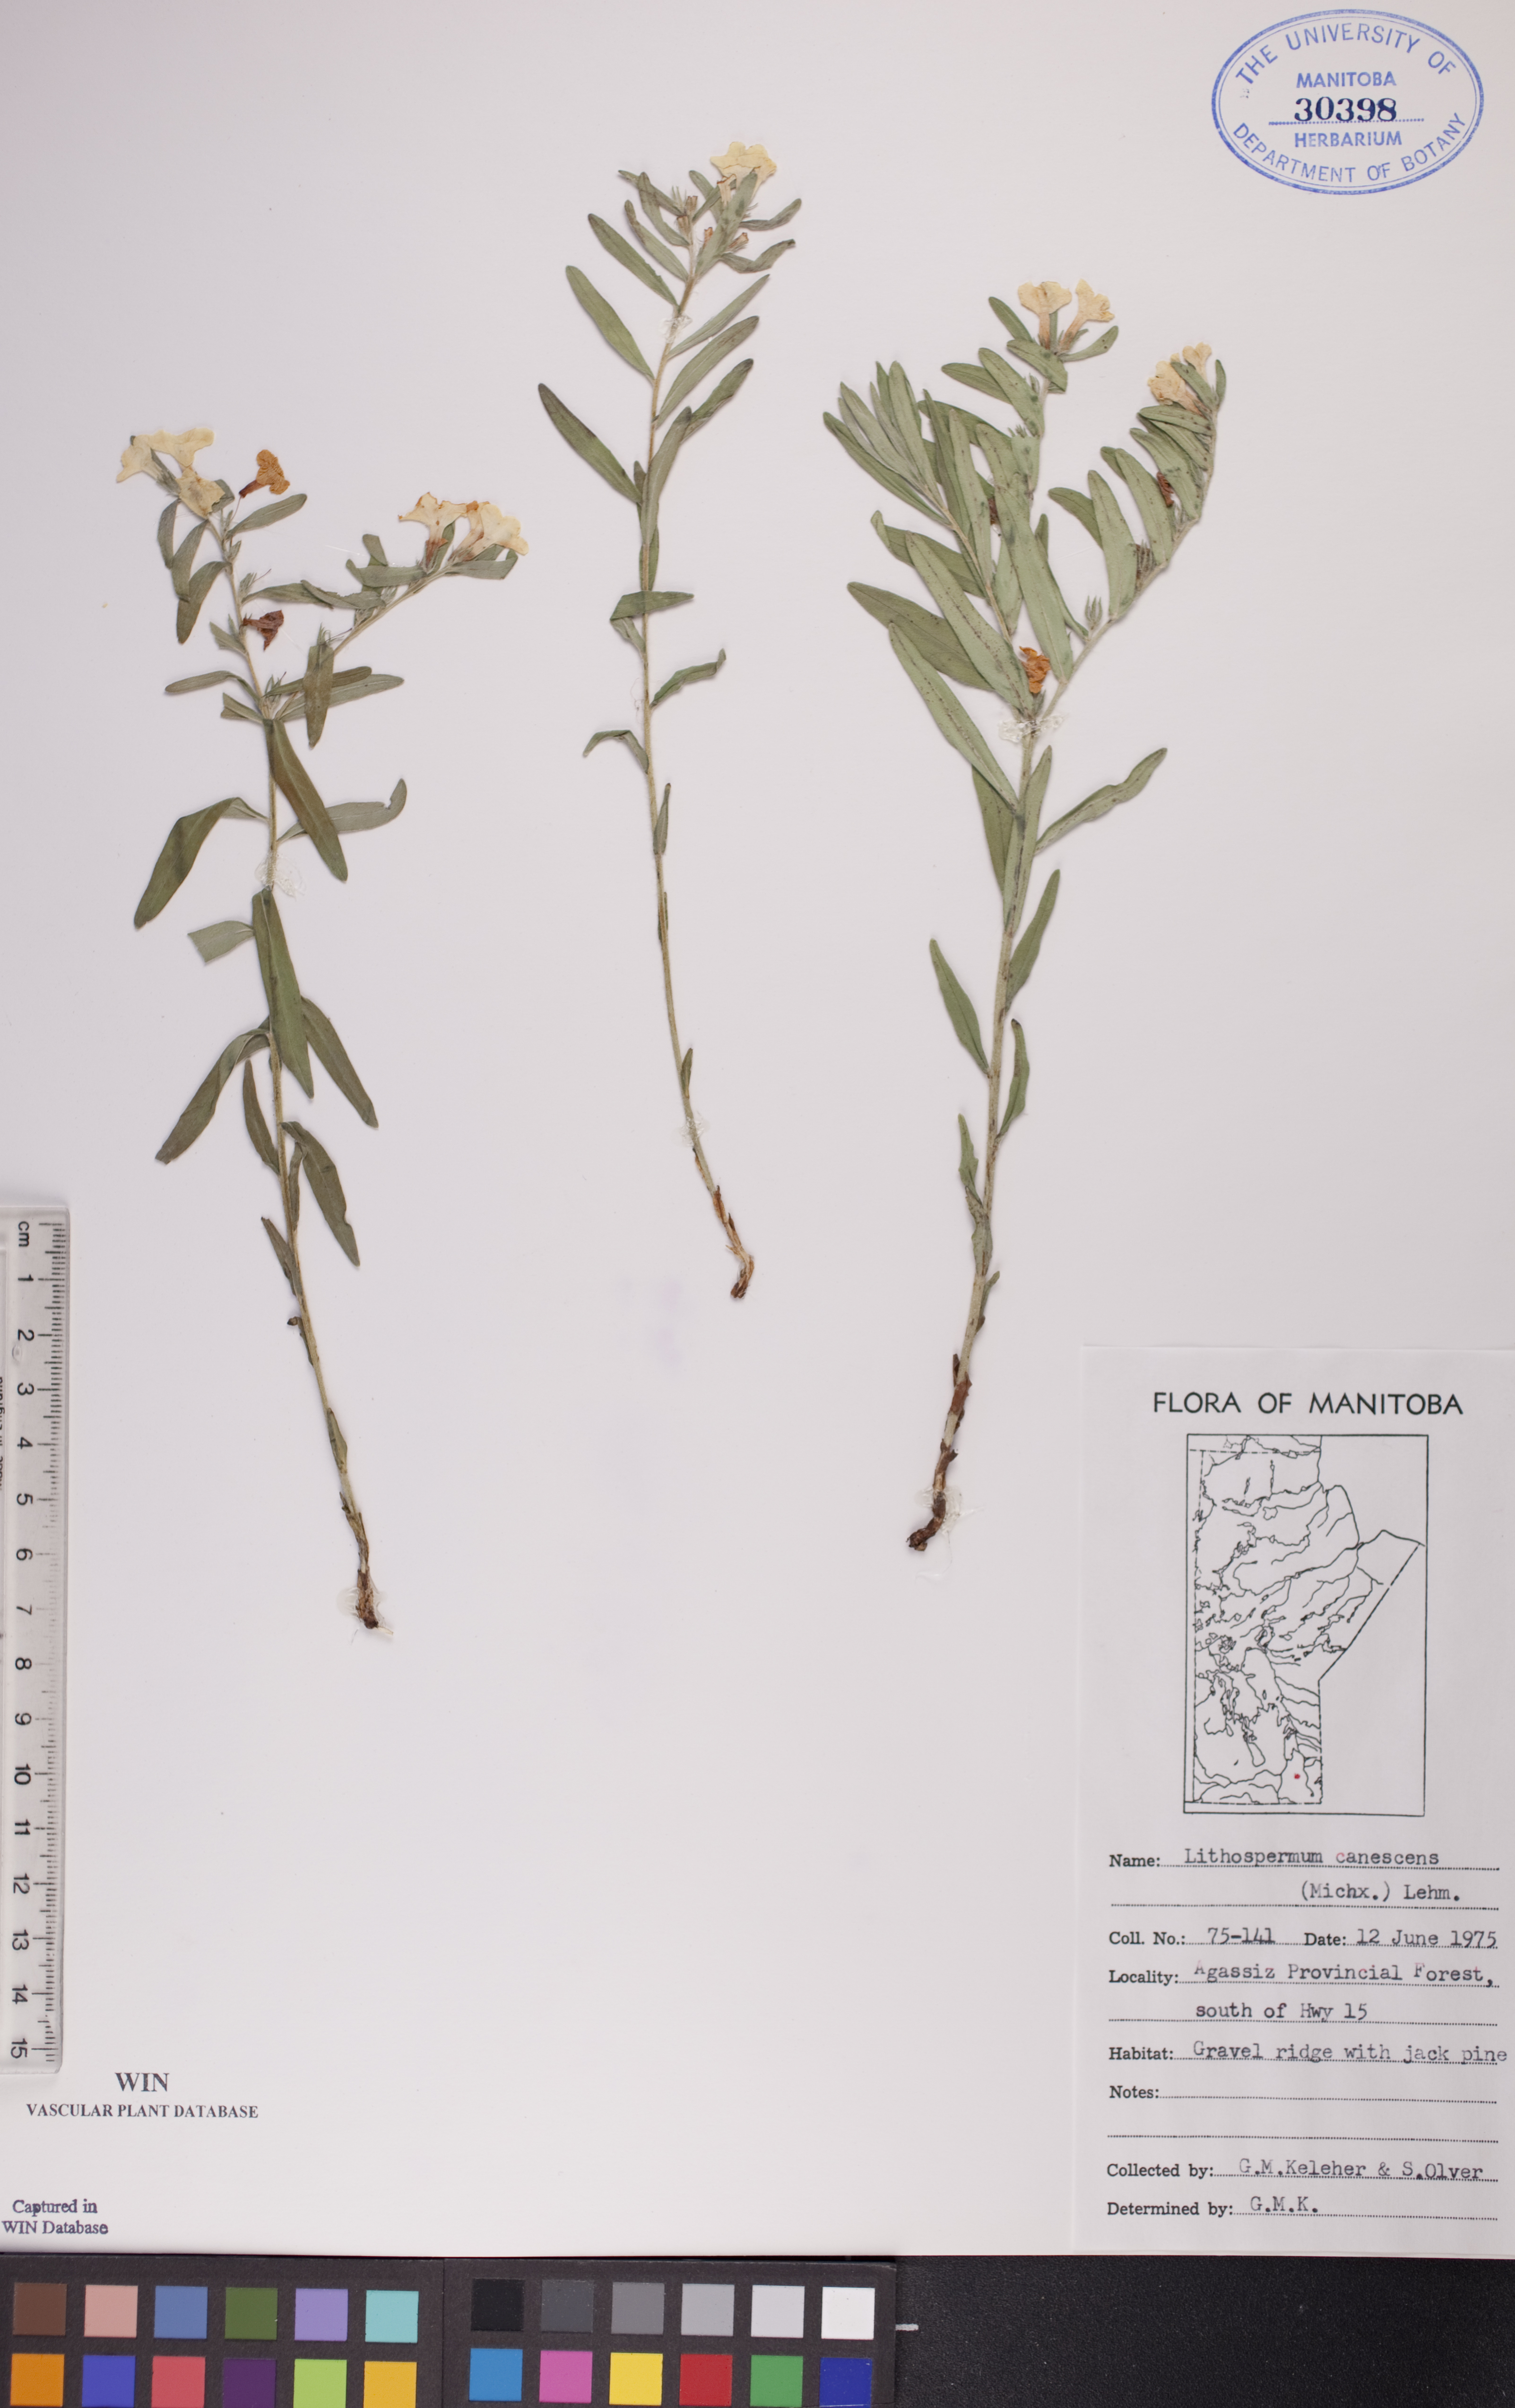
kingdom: Plantae
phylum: Tracheophyta
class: Magnoliopsida
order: Boraginales
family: Boraginaceae
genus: Lithospermum
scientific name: Lithospermum canescens
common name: Hoary puccoon
